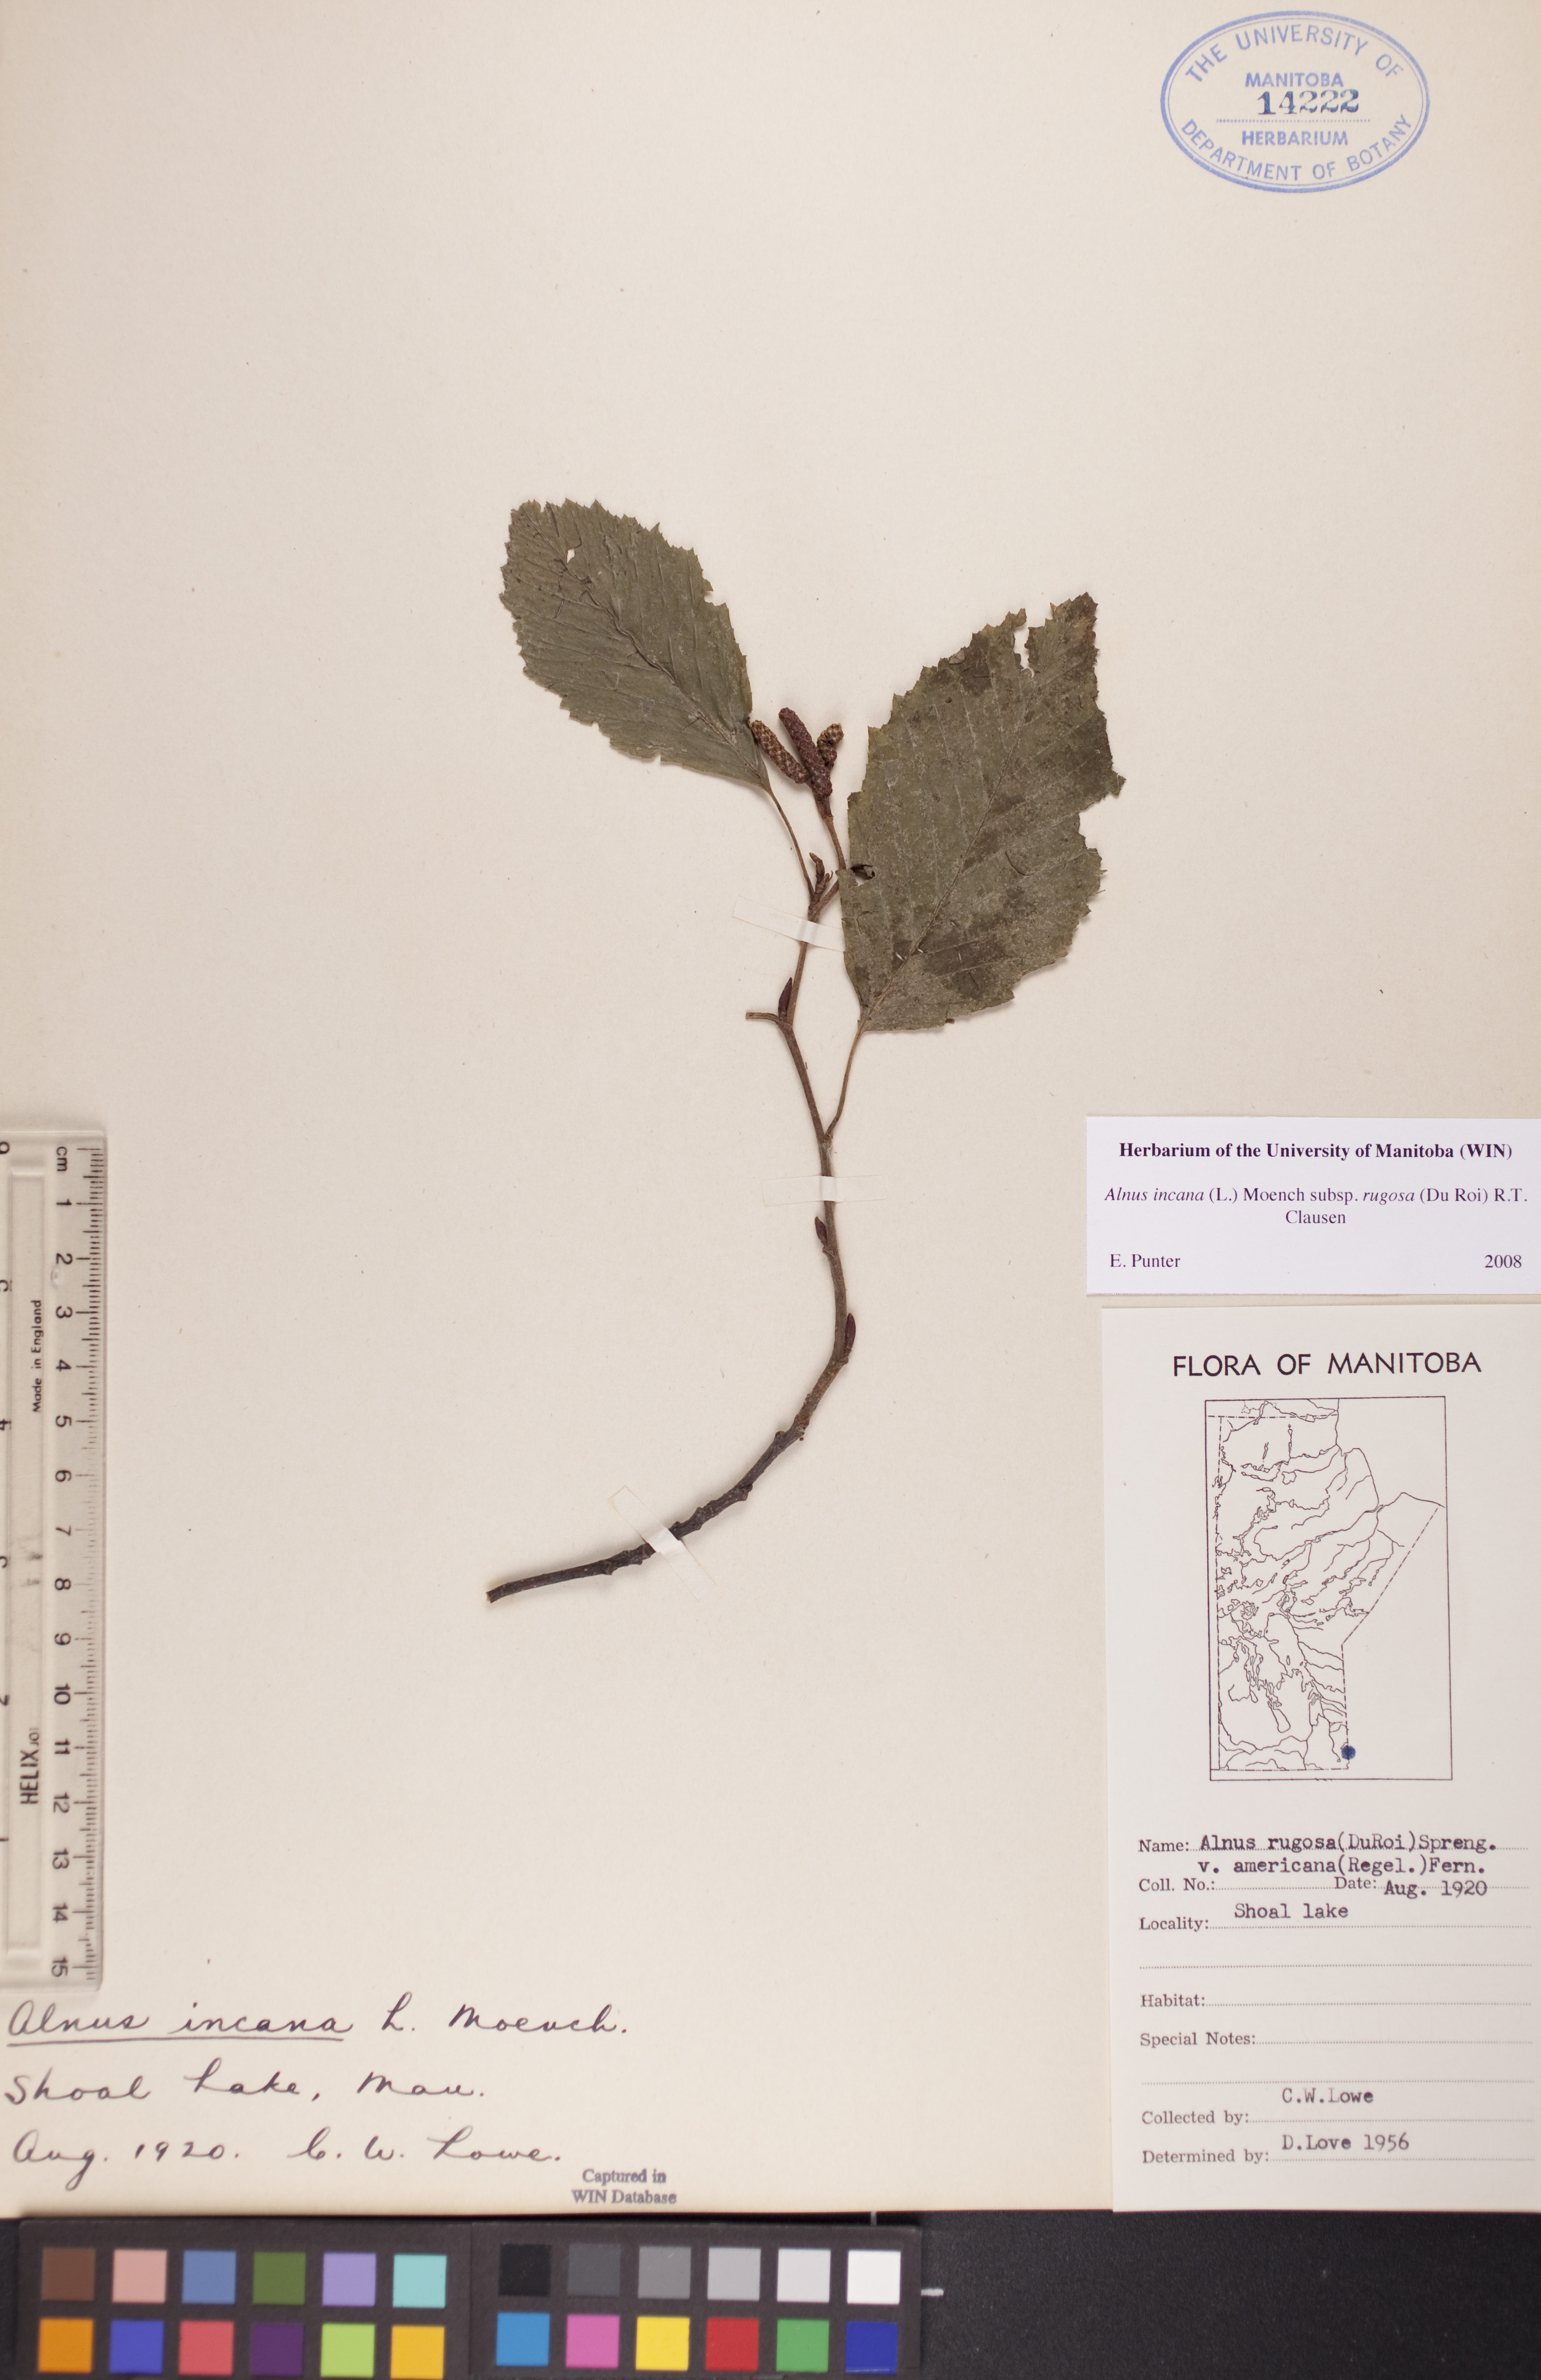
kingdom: Plantae
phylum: Tracheophyta
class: Magnoliopsida
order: Fagales
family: Betulaceae
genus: Alnus
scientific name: Alnus incana
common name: Grey alder
